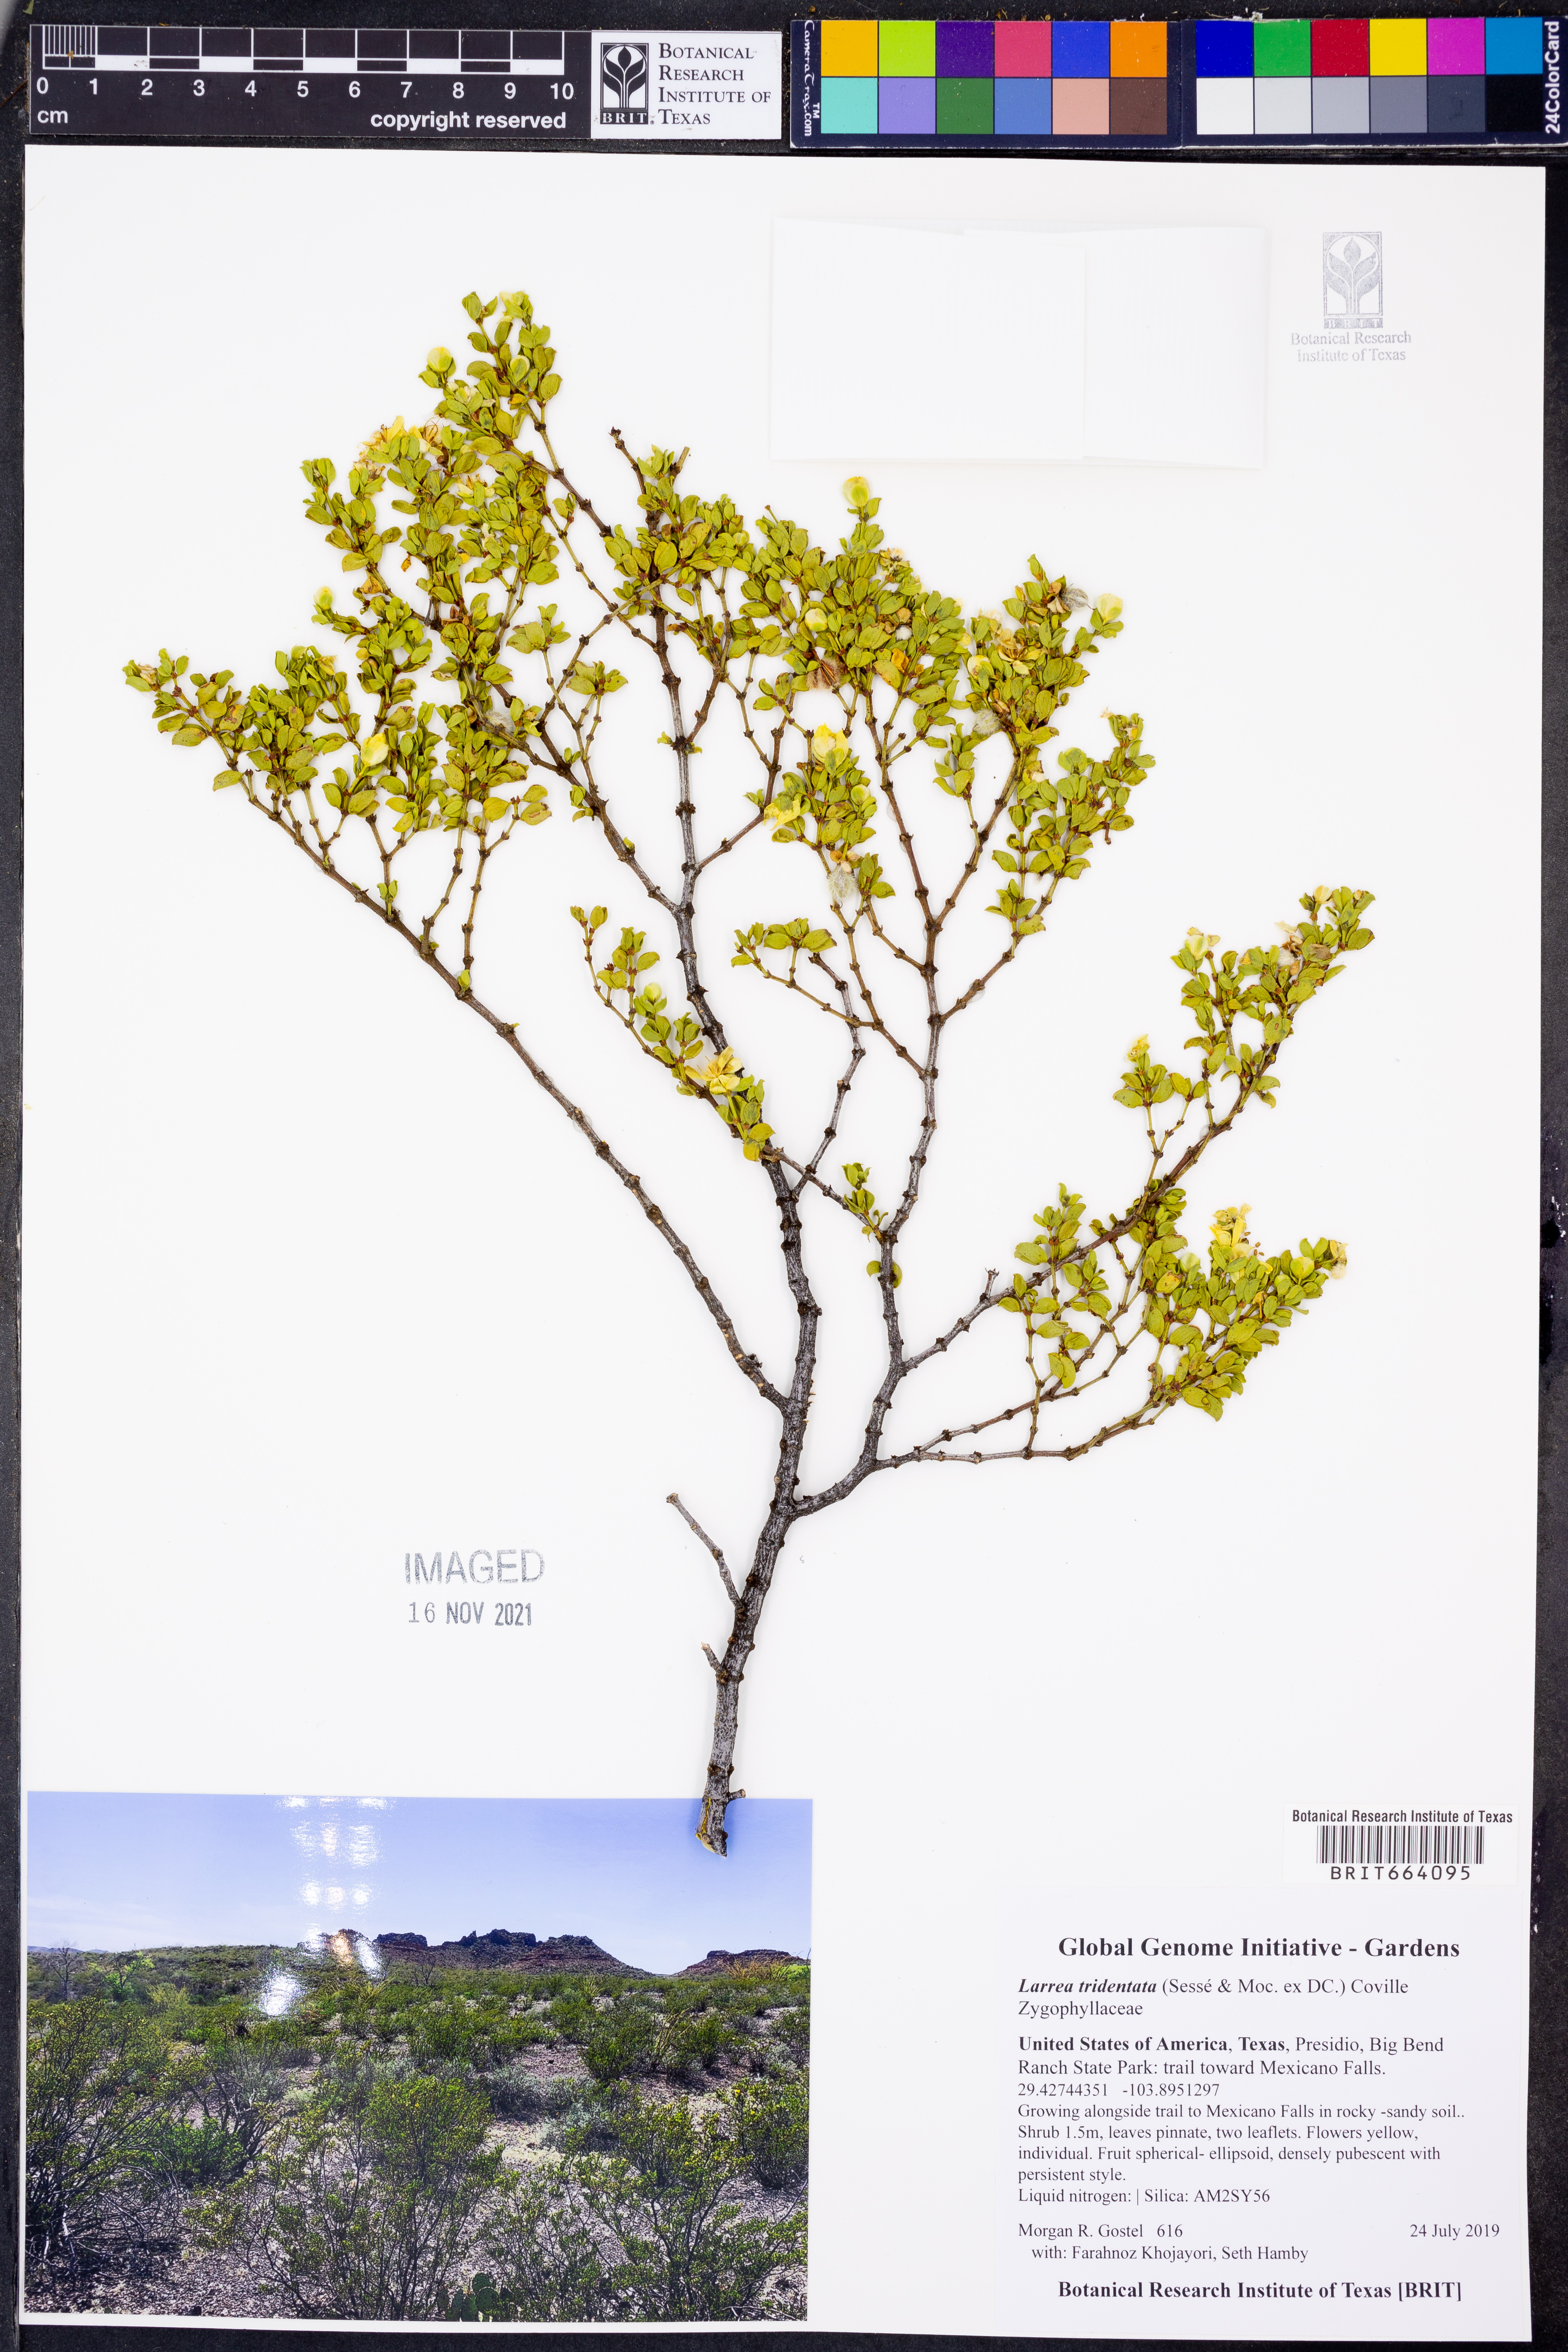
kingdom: Plantae
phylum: Tracheophyta
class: Magnoliopsida
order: Zygophyllales
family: Zygophyllaceae
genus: Larrea
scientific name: Larrea tridentata
